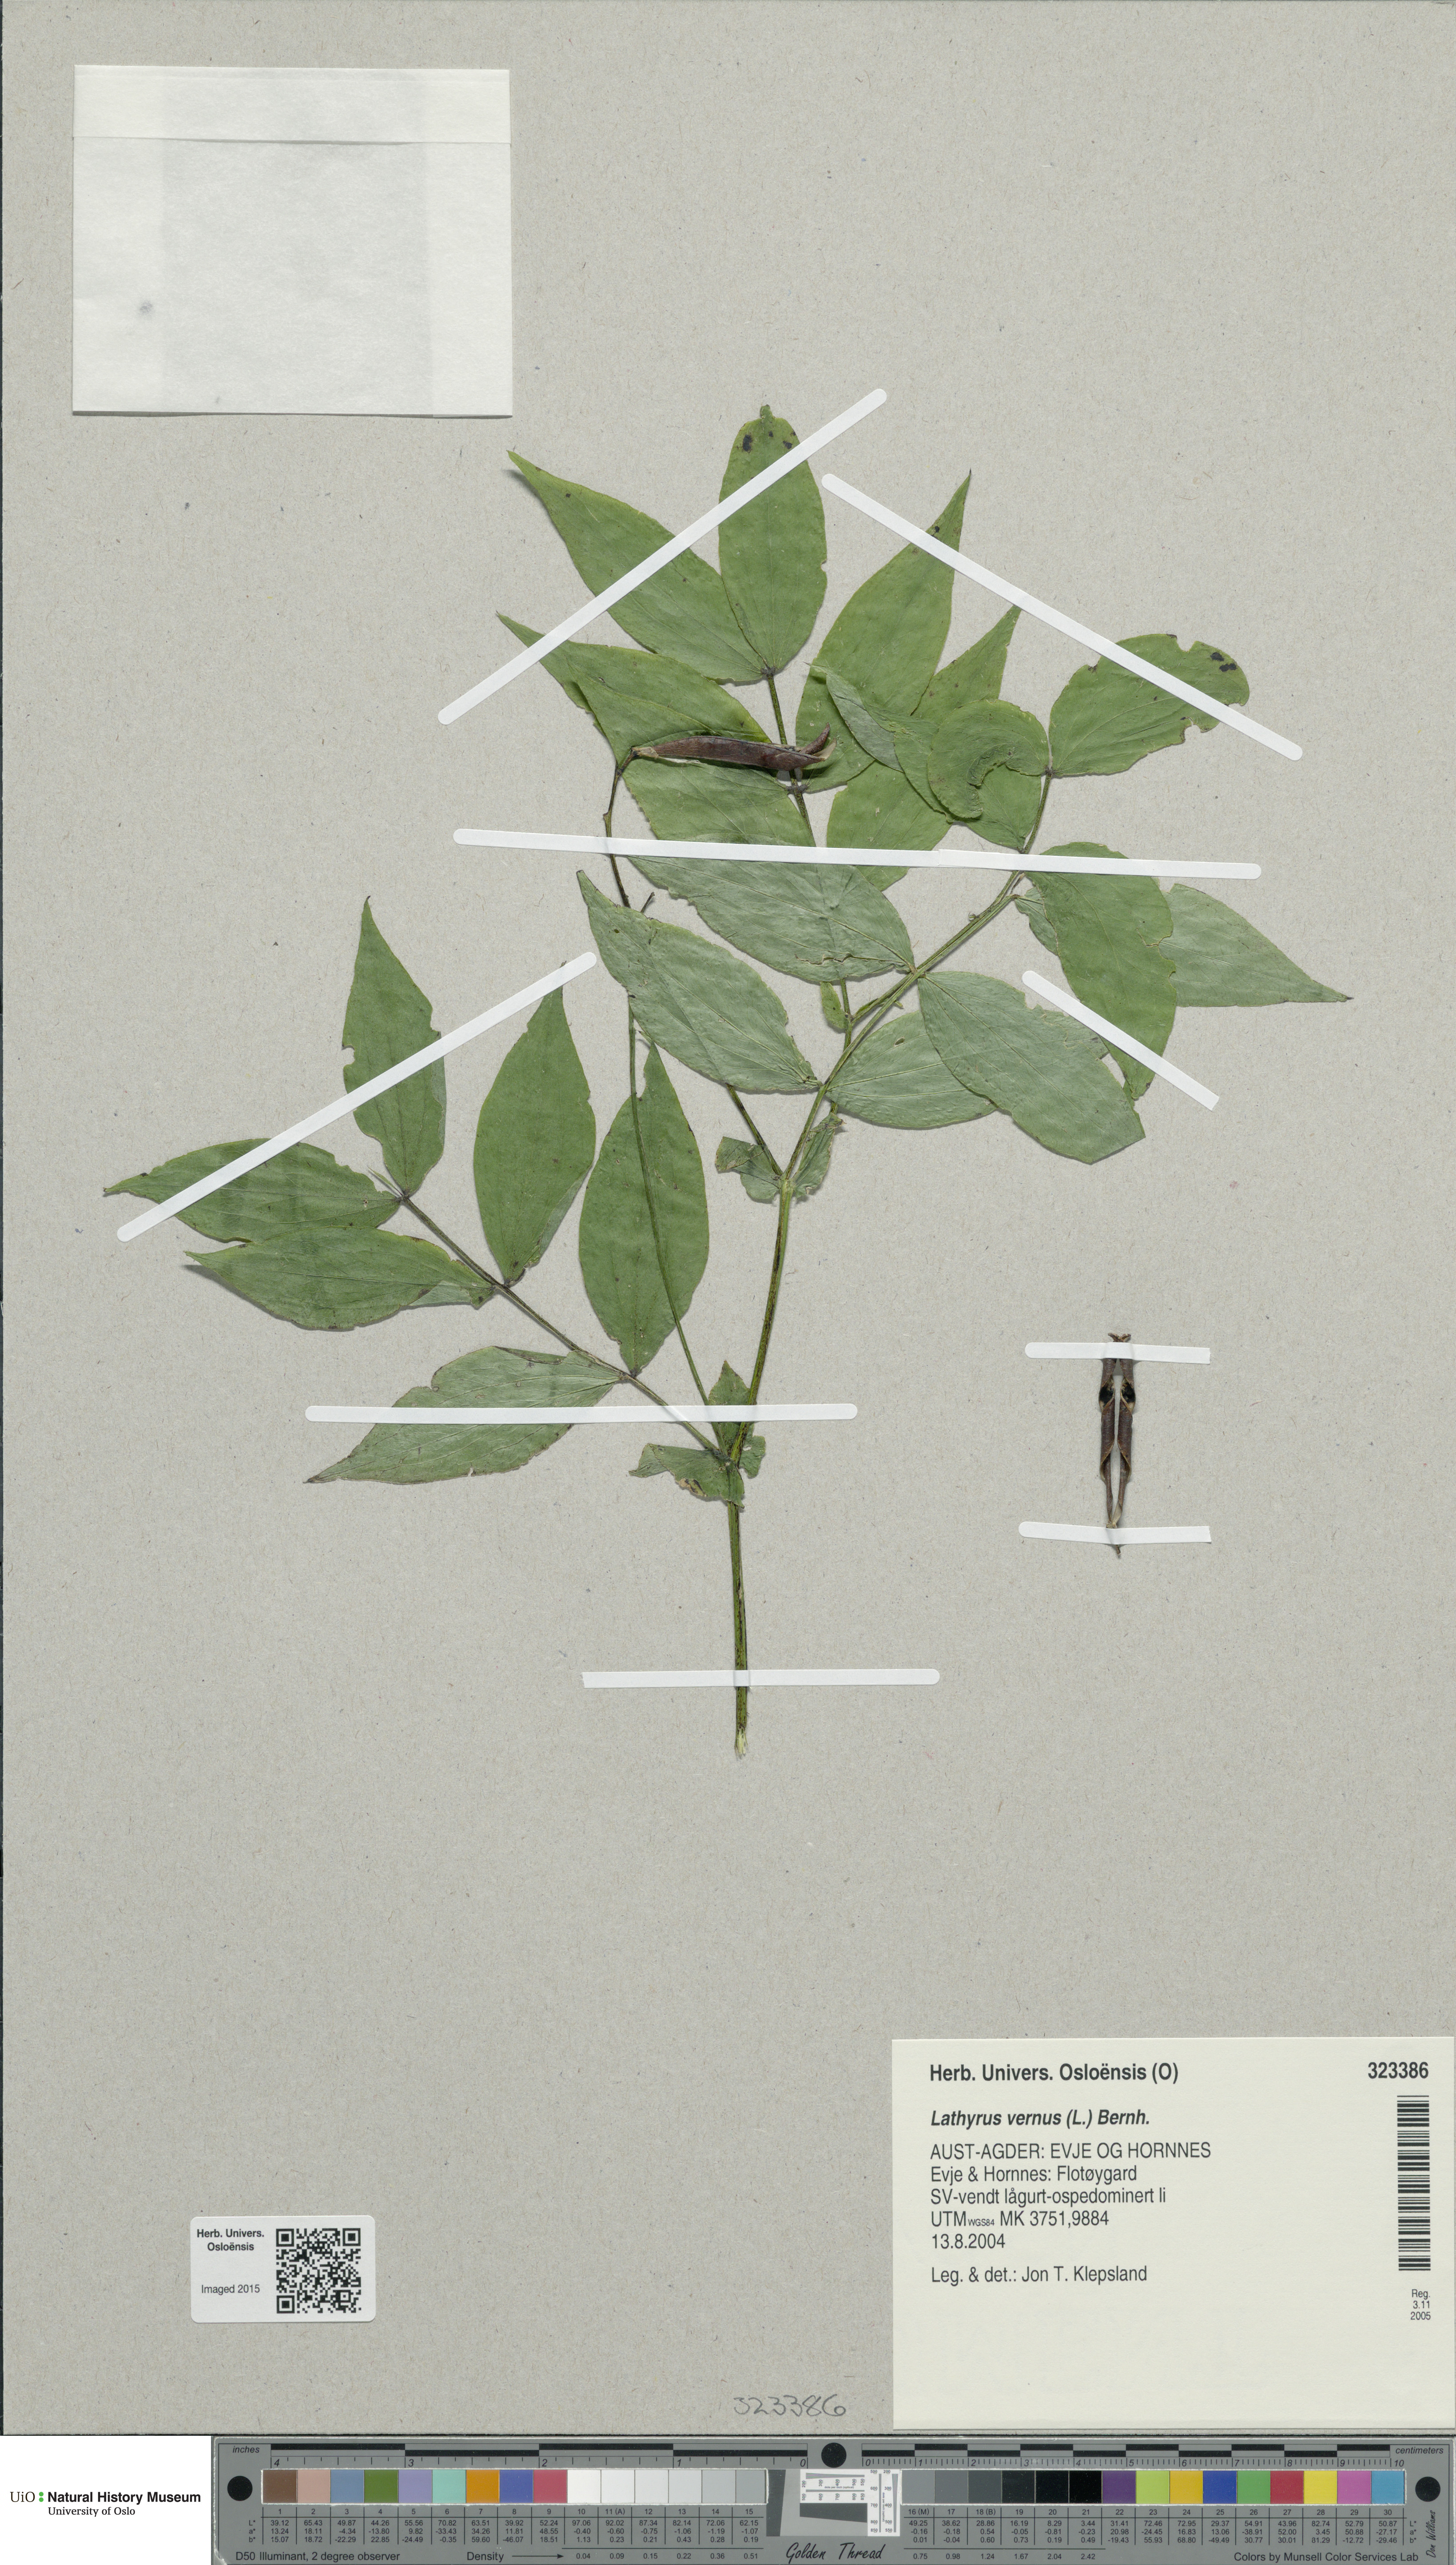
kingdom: Plantae
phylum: Tracheophyta
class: Magnoliopsida
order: Fabales
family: Fabaceae
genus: Lathyrus
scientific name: Lathyrus vernus
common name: Spring pea
